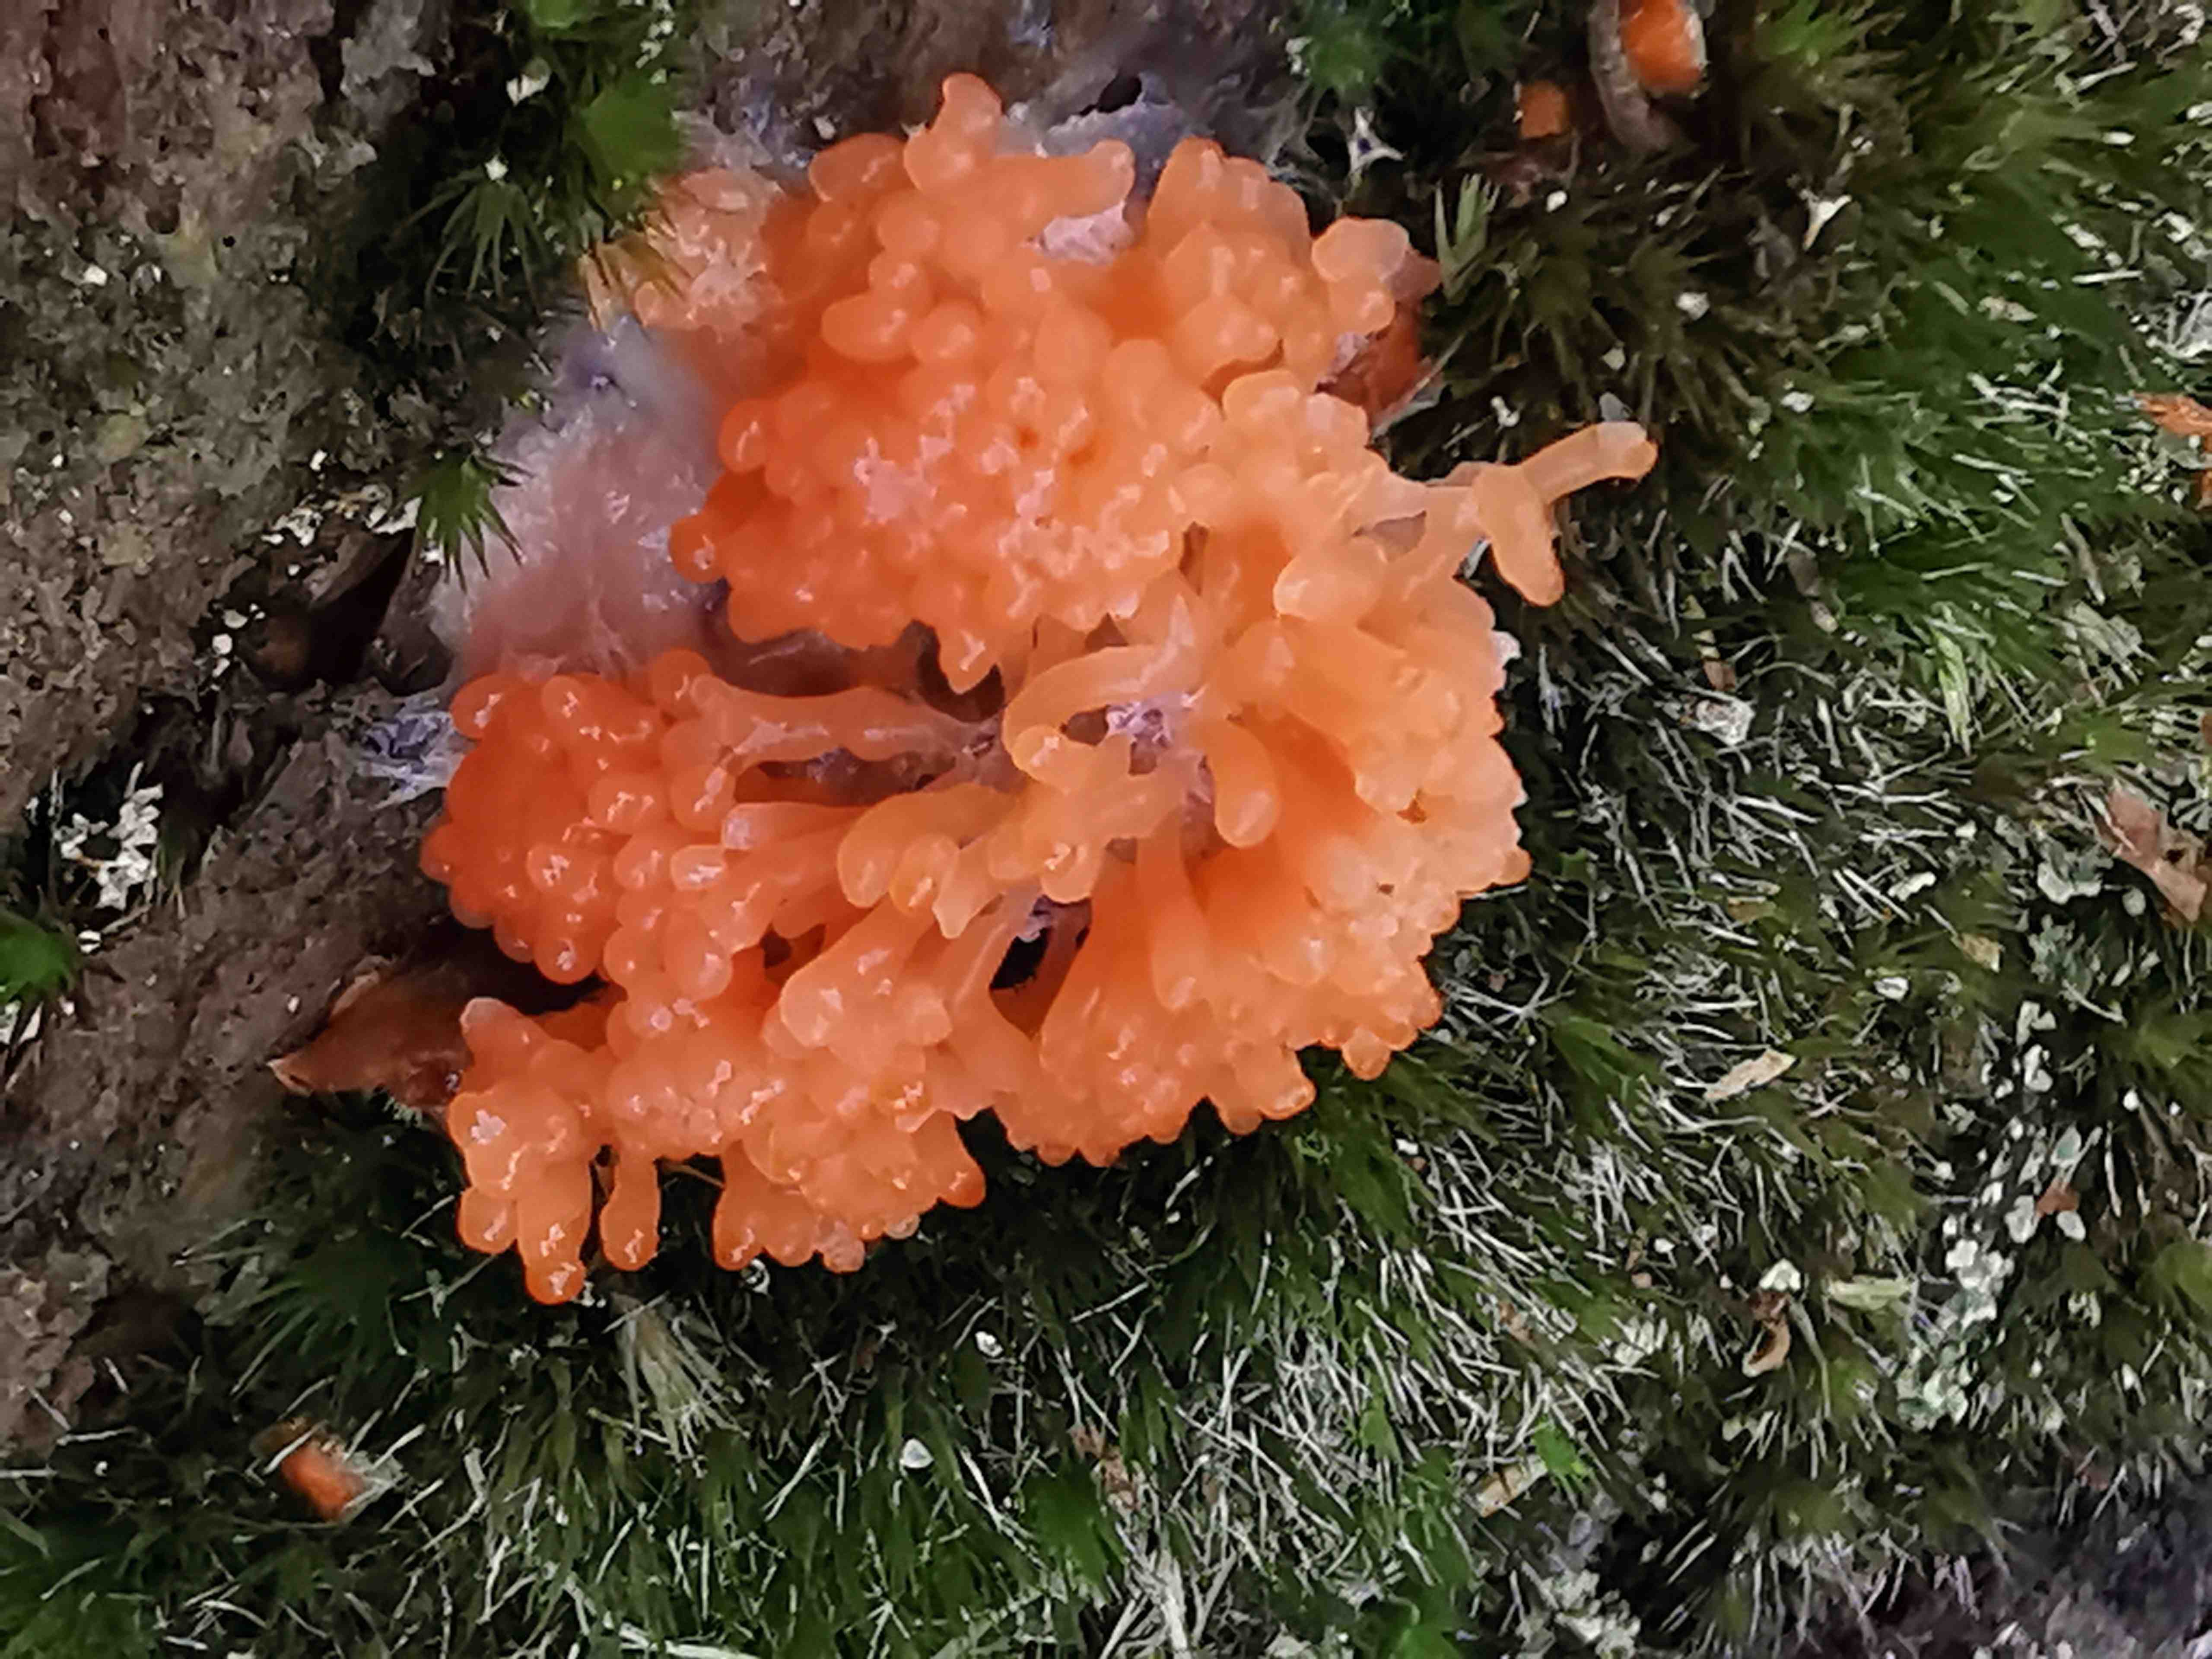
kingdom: Protozoa
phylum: Mycetozoa
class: Myxomycetes
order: Cribrariales
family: Tubiferaceae
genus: Tubifera
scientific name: Tubifera ferruginosa
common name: kanel-støvrør
